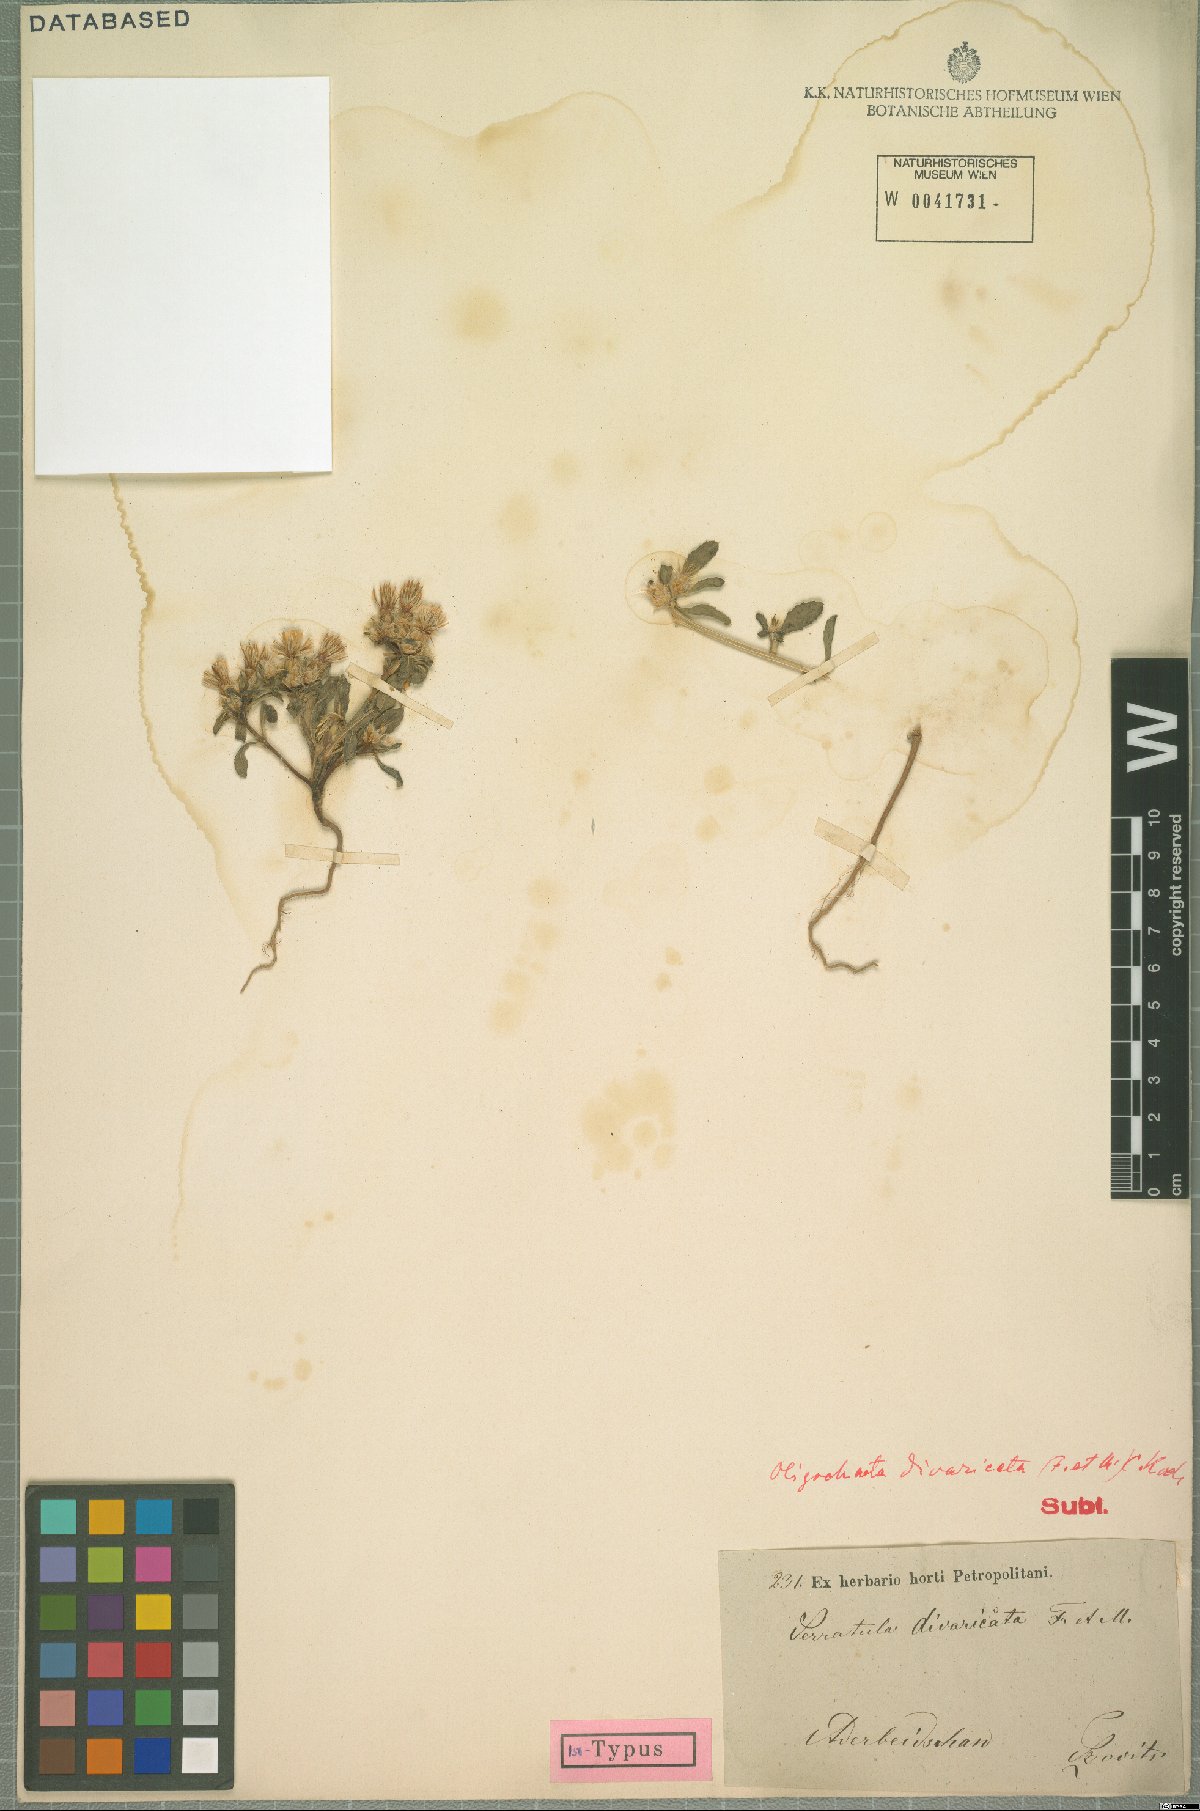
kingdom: Plantae
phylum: Tracheophyta
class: Magnoliopsida
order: Asterales
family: Asteraceae
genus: Oligochaeta
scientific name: Oligochaeta divaricata
